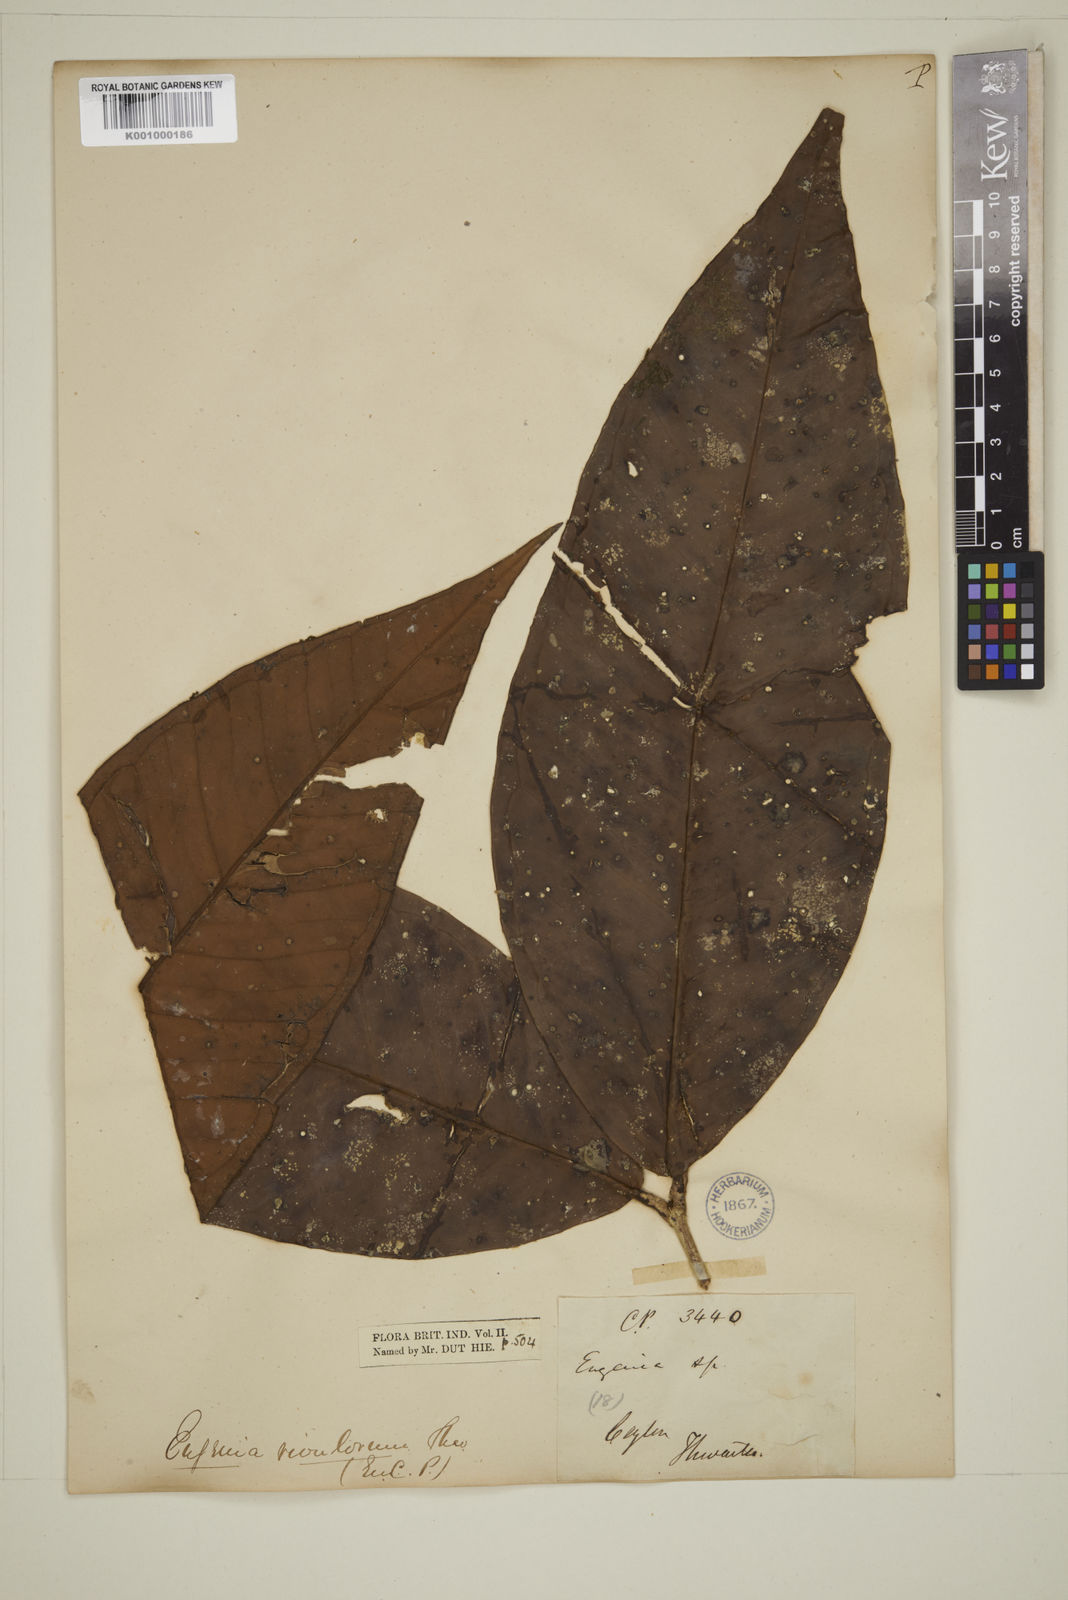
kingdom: Plantae
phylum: Tracheophyta
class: Magnoliopsida
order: Myrtales
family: Myrtaceae
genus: Eugenia
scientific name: Eugenia rivulorum
